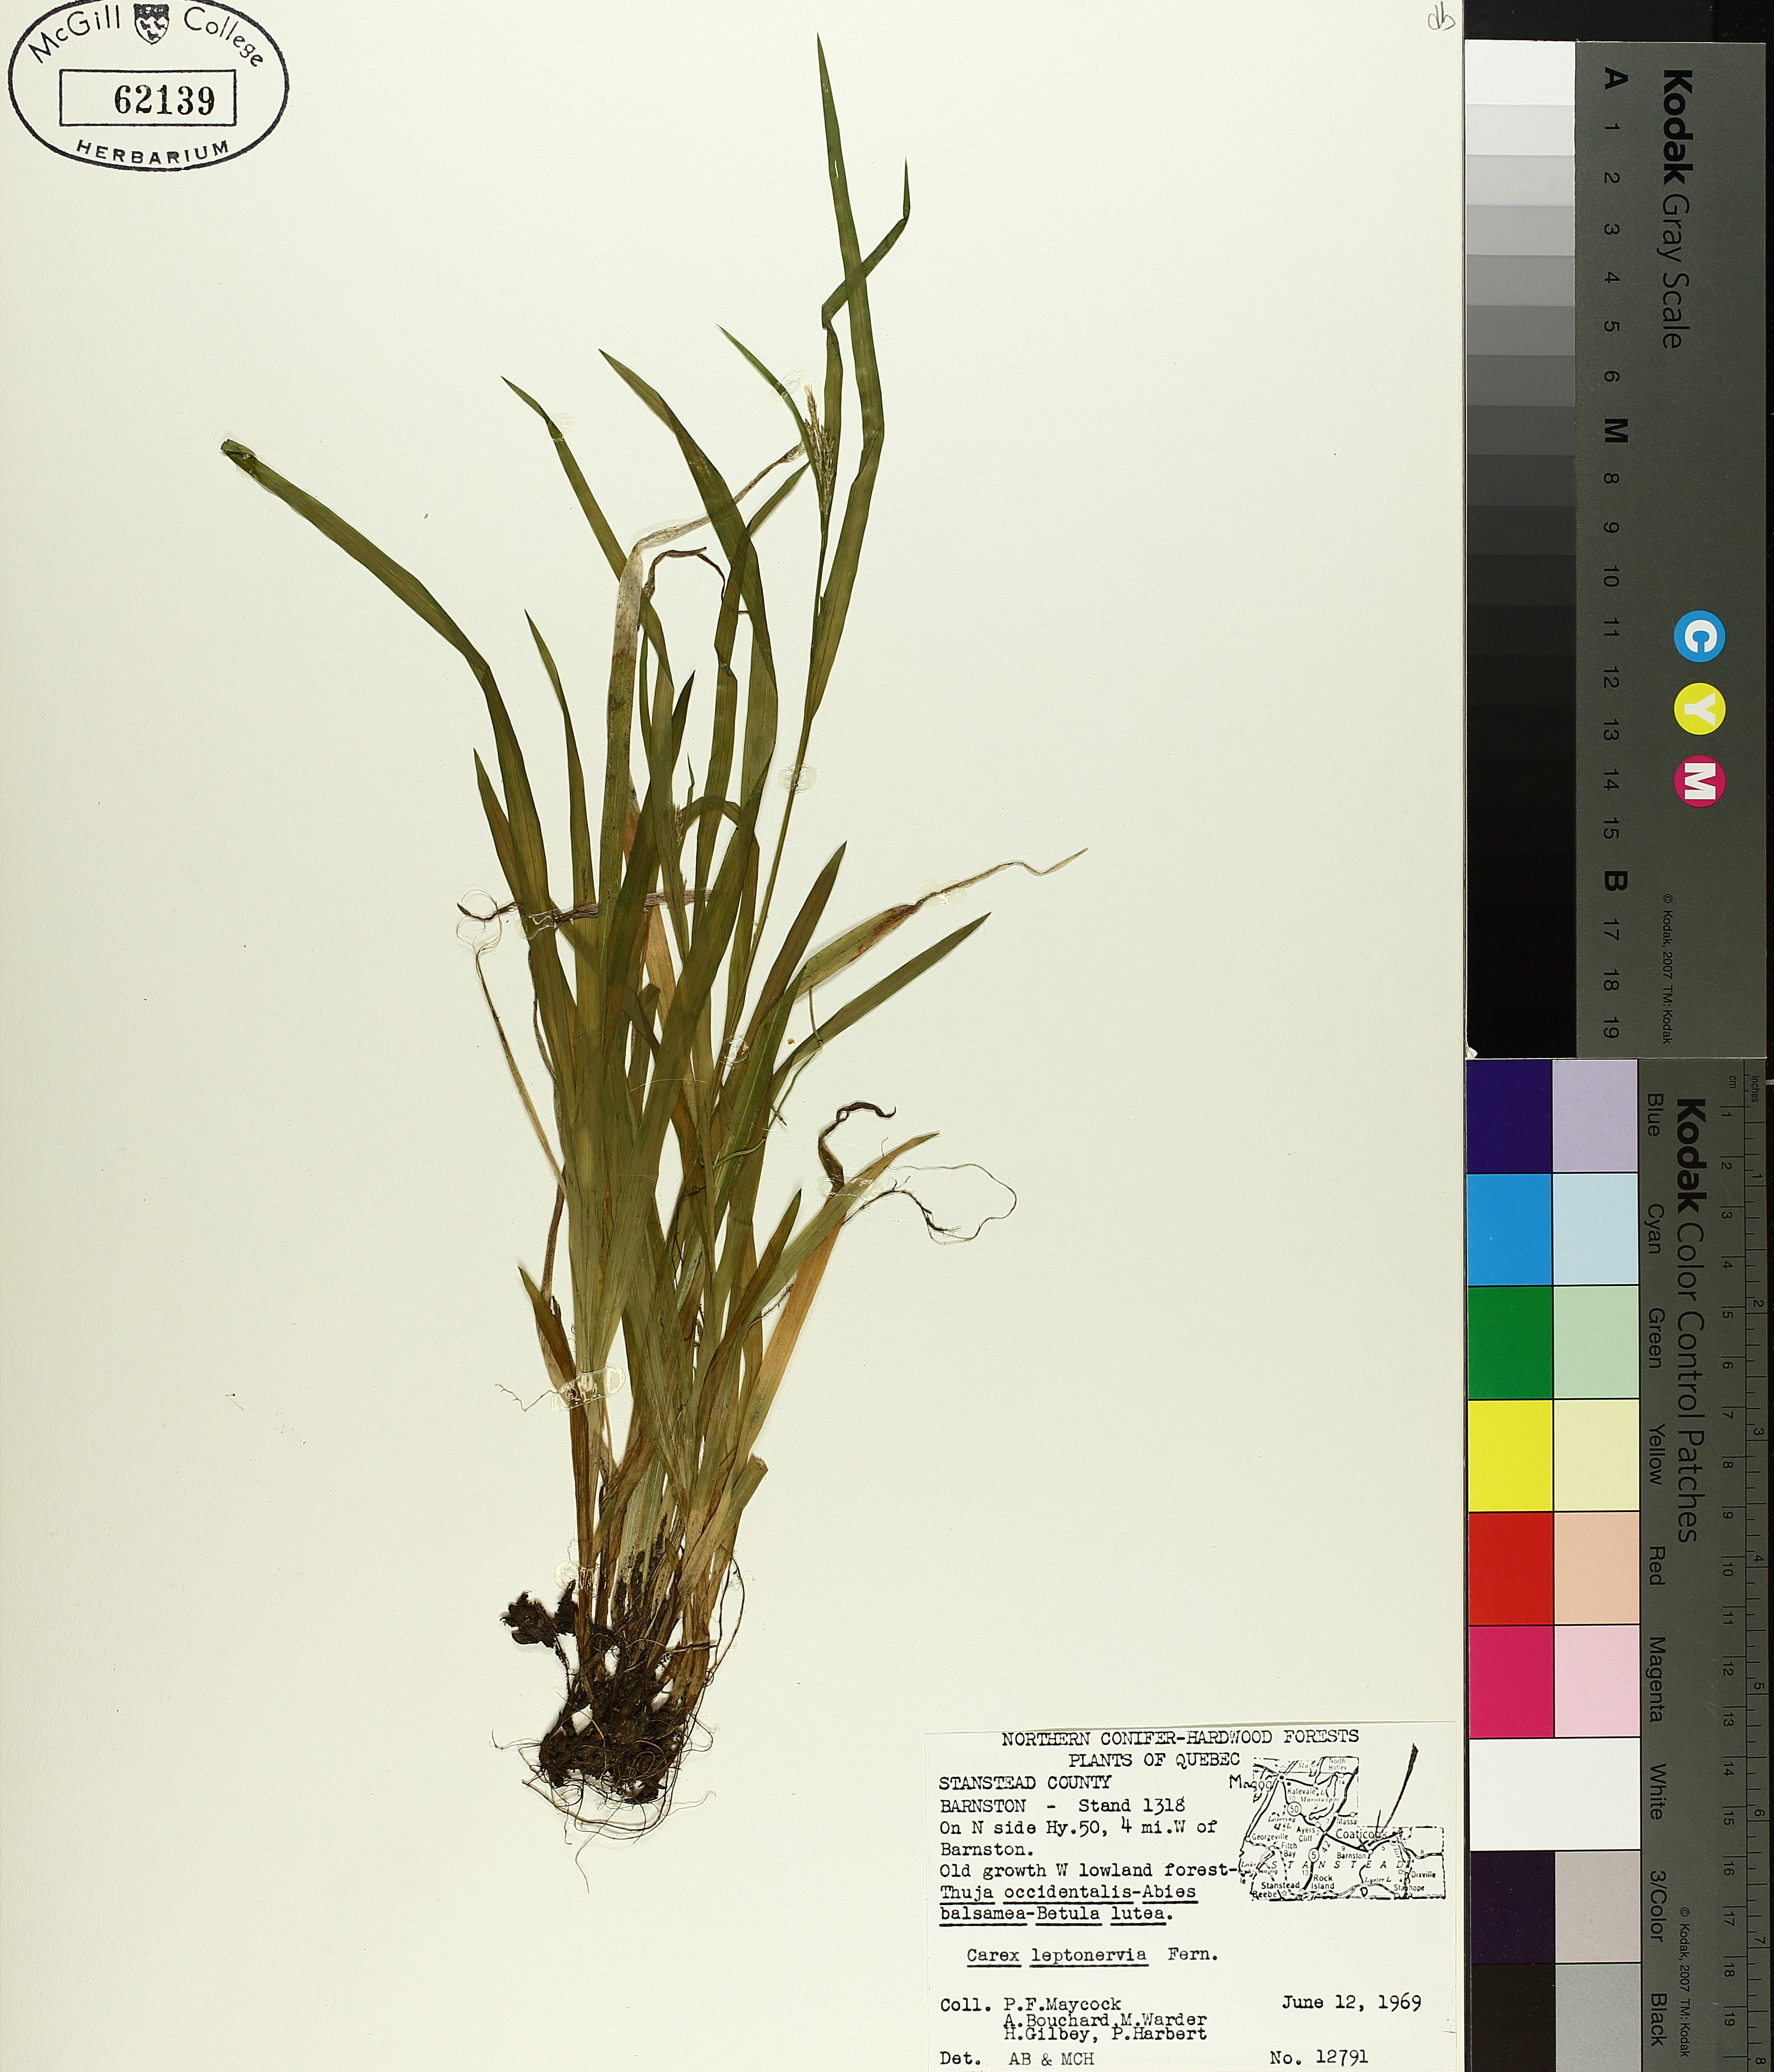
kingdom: Plantae
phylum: Tracheophyta
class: Liliopsida
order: Poales
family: Cyperaceae
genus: Carex
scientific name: Carex leptonervia
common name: Few-nerved wood sedge
